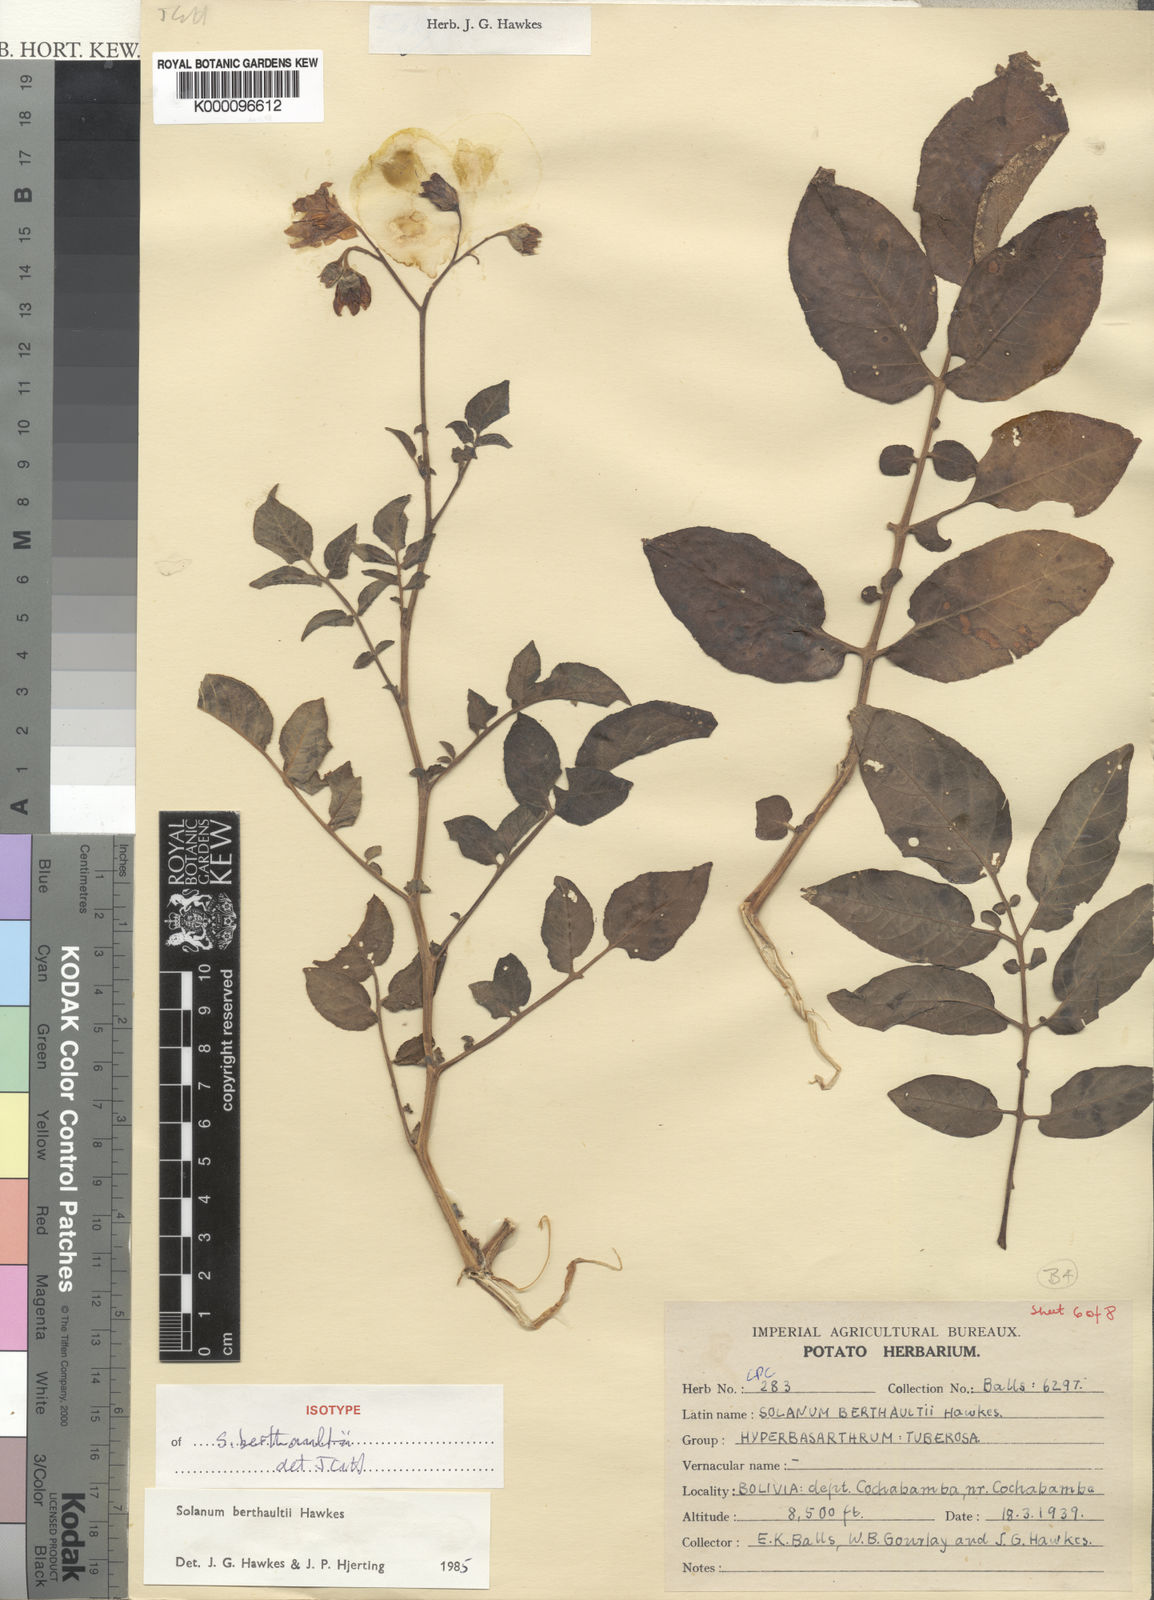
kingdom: Plantae
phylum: Tracheophyta
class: Magnoliopsida
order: Solanales
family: Solanaceae
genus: Solanum
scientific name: Solanum berthaultii
